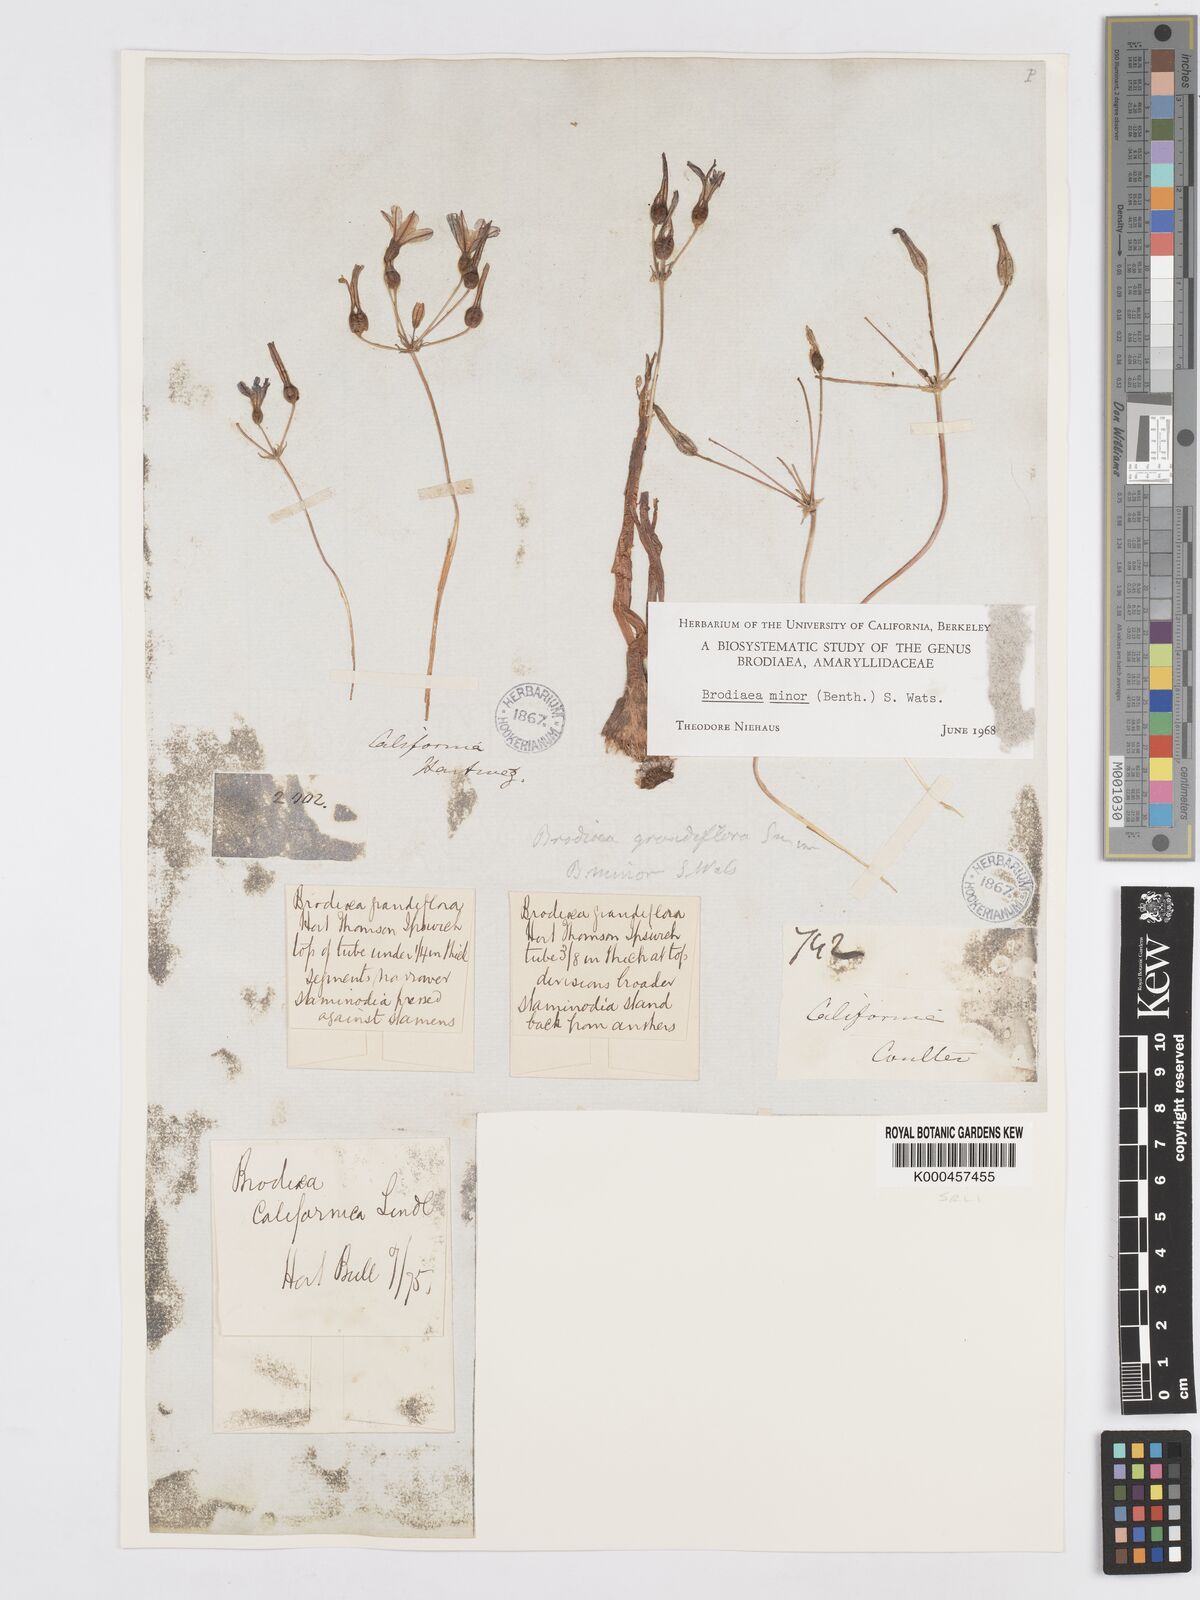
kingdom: Plantae
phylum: Tracheophyta
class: Liliopsida
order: Asparagales
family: Asparagaceae
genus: Brodiaea
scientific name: Brodiaea minor
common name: Dwarf brodiaea
